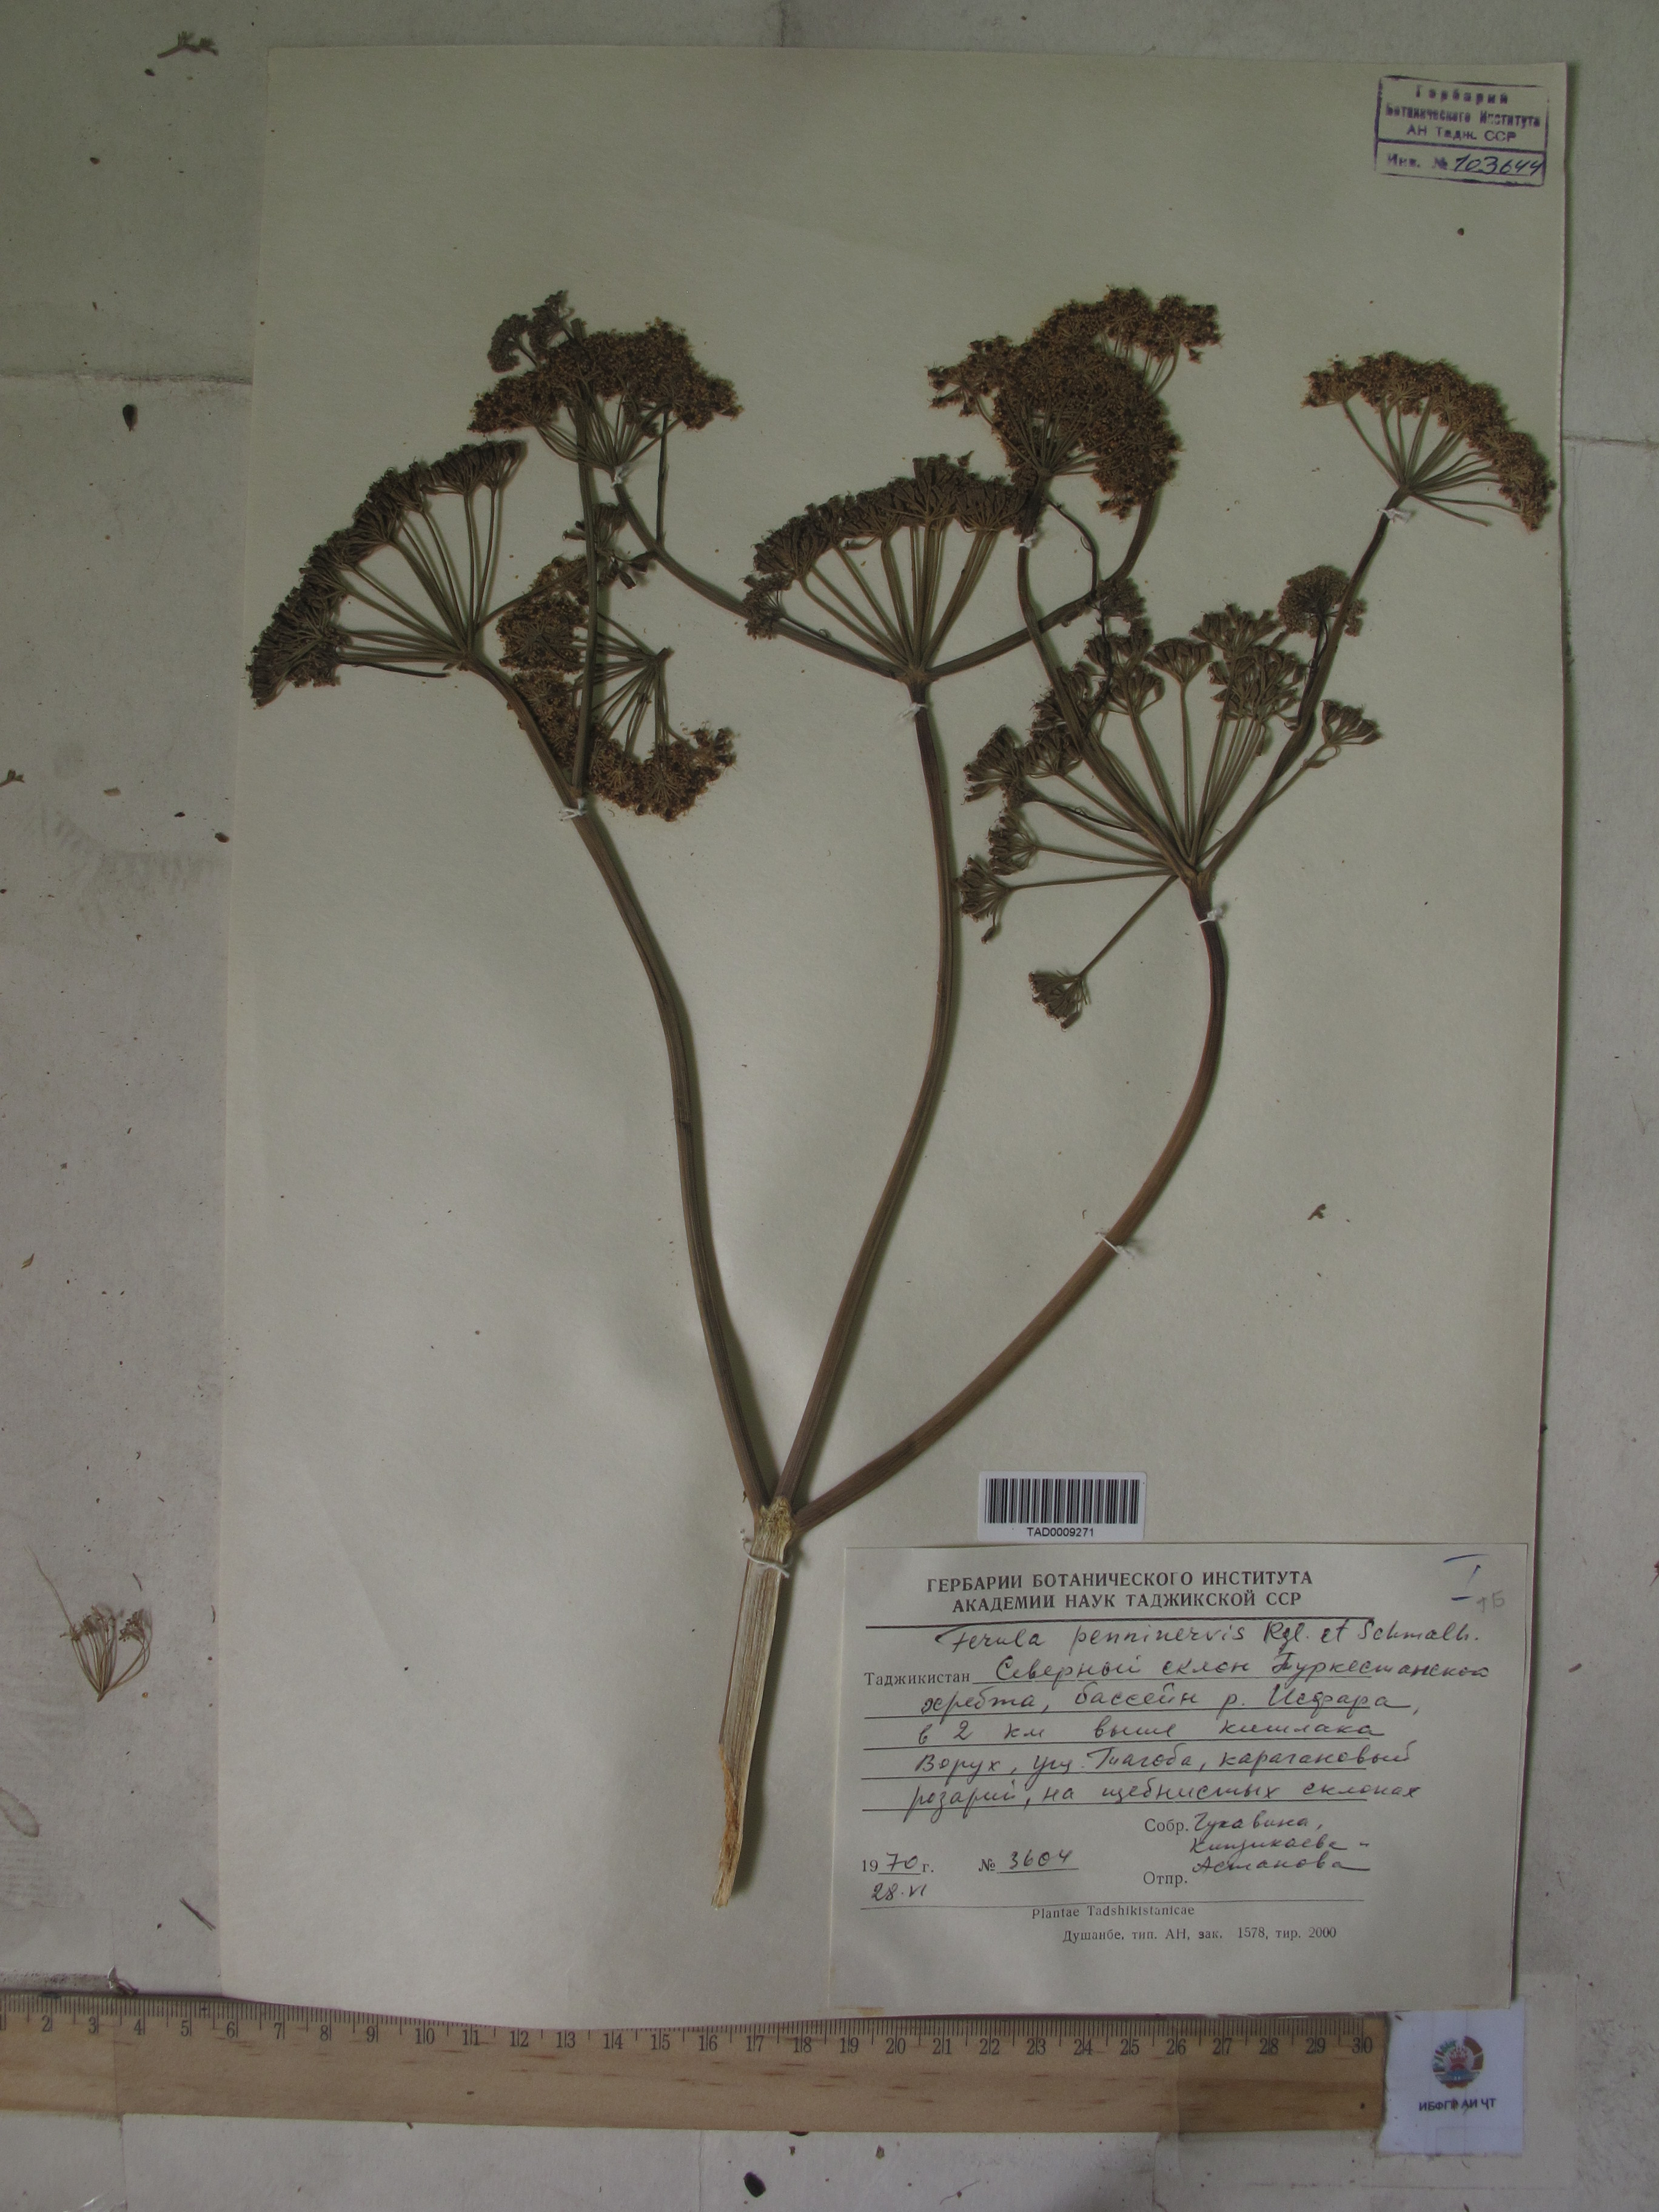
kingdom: Plantae
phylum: Tracheophyta
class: Magnoliopsida
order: Apiales
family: Apiaceae
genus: Ferula
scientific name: Ferula
